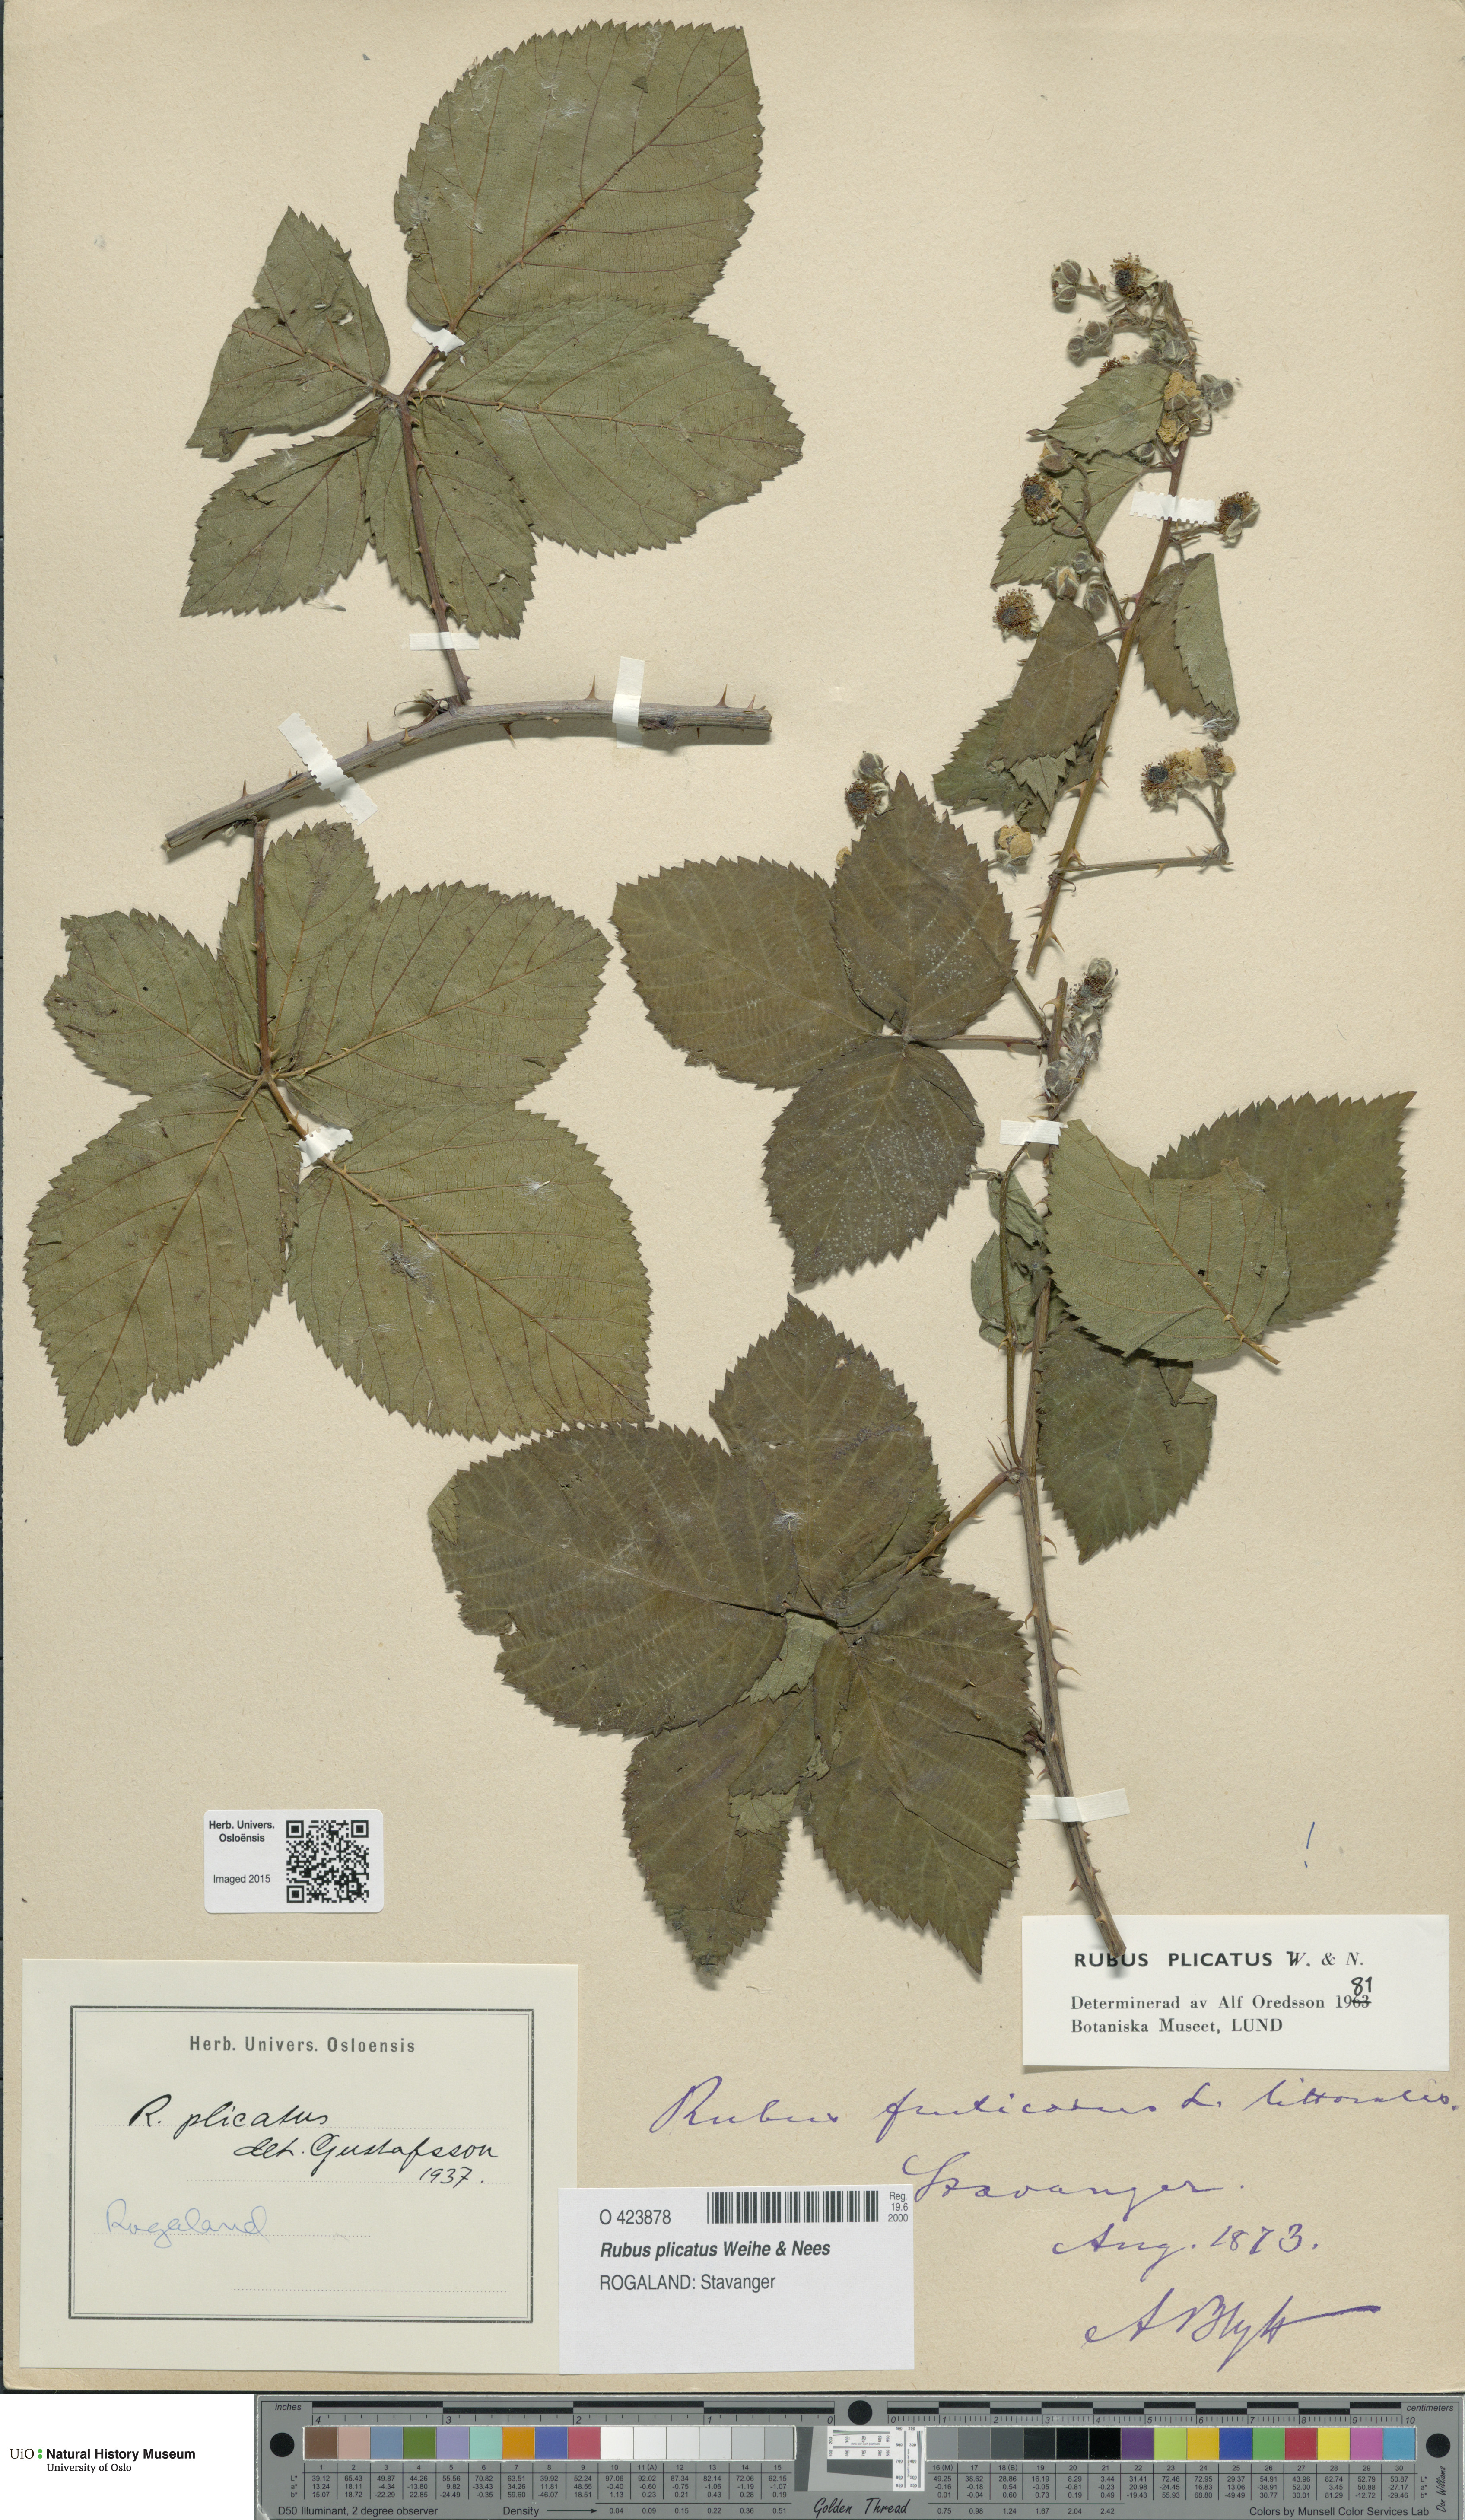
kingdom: Plantae
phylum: Tracheophyta
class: Magnoliopsida
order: Rosales
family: Rosaceae
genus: Rubus
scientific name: Rubus fruticosus
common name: Blackberry, bramble
